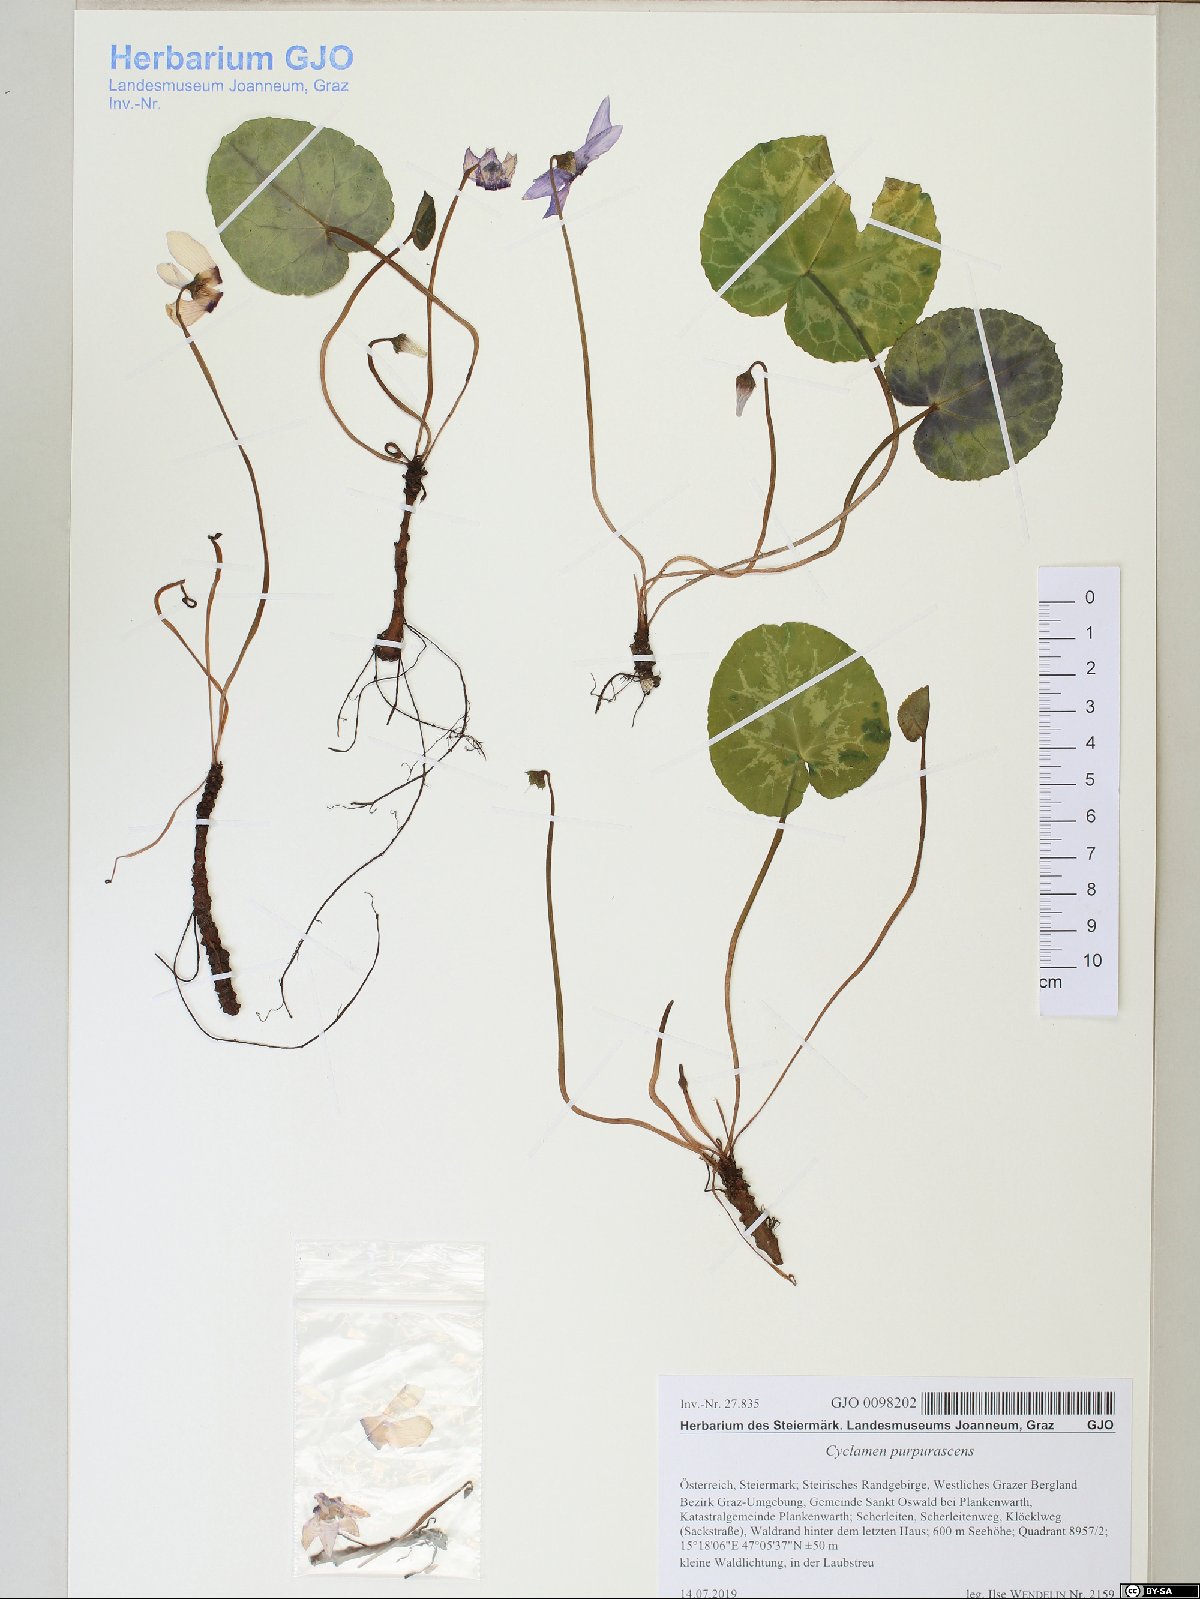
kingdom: Plantae
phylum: Tracheophyta
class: Magnoliopsida
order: Ericales
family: Primulaceae
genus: Cyclamen
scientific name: Cyclamen purpurascens
